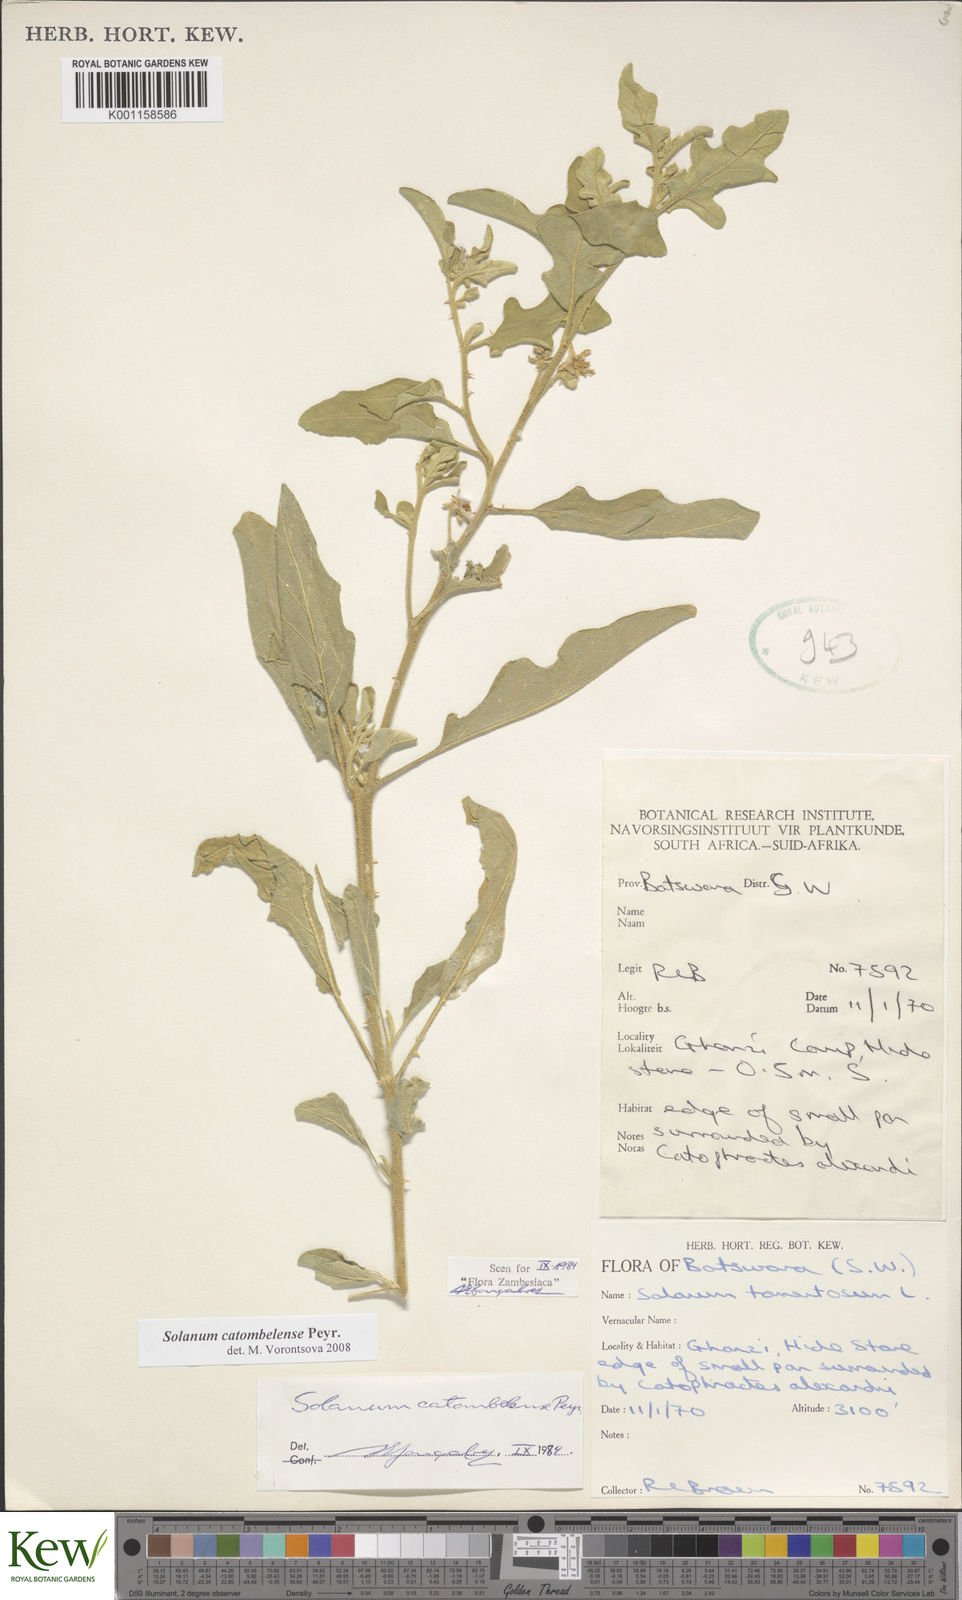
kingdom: Plantae
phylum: Tracheophyta
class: Magnoliopsida
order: Solanales
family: Solanaceae
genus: Solanum
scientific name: Solanum catombelense
